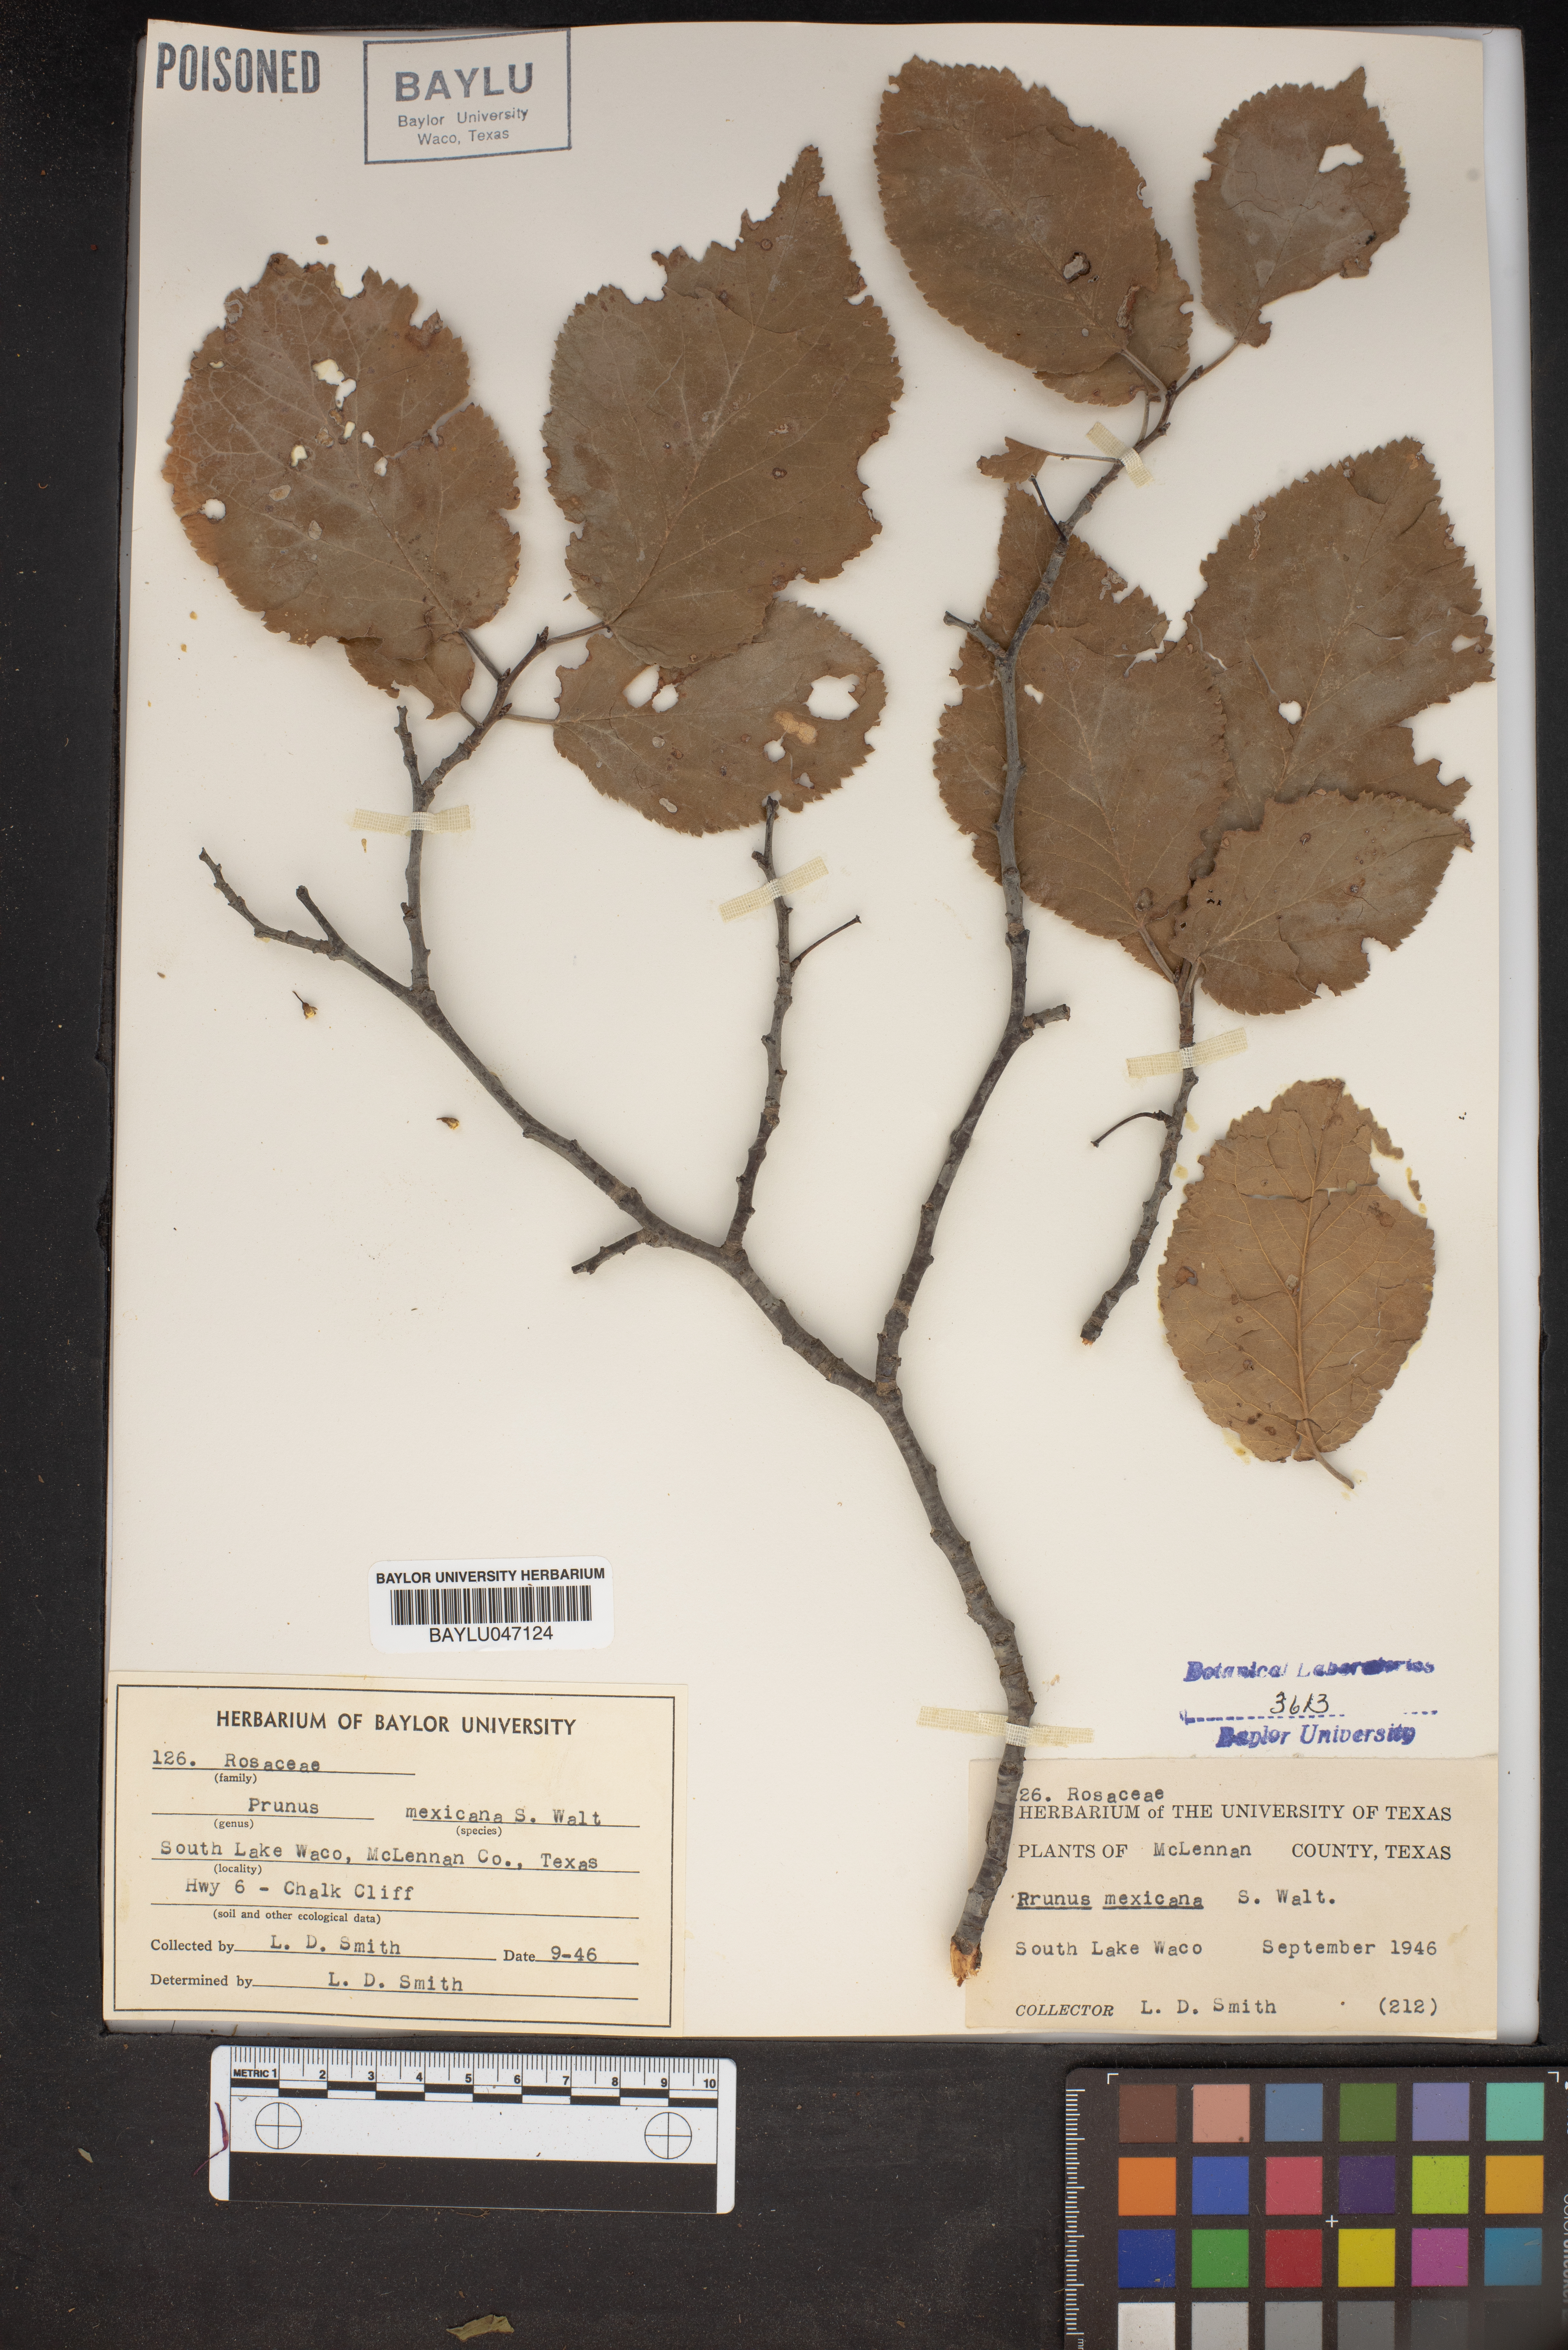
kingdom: Plantae
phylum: Tracheophyta
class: Magnoliopsida
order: Rosales
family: Rosaceae
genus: Prunus
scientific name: Prunus mexicana
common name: Mexican plum
